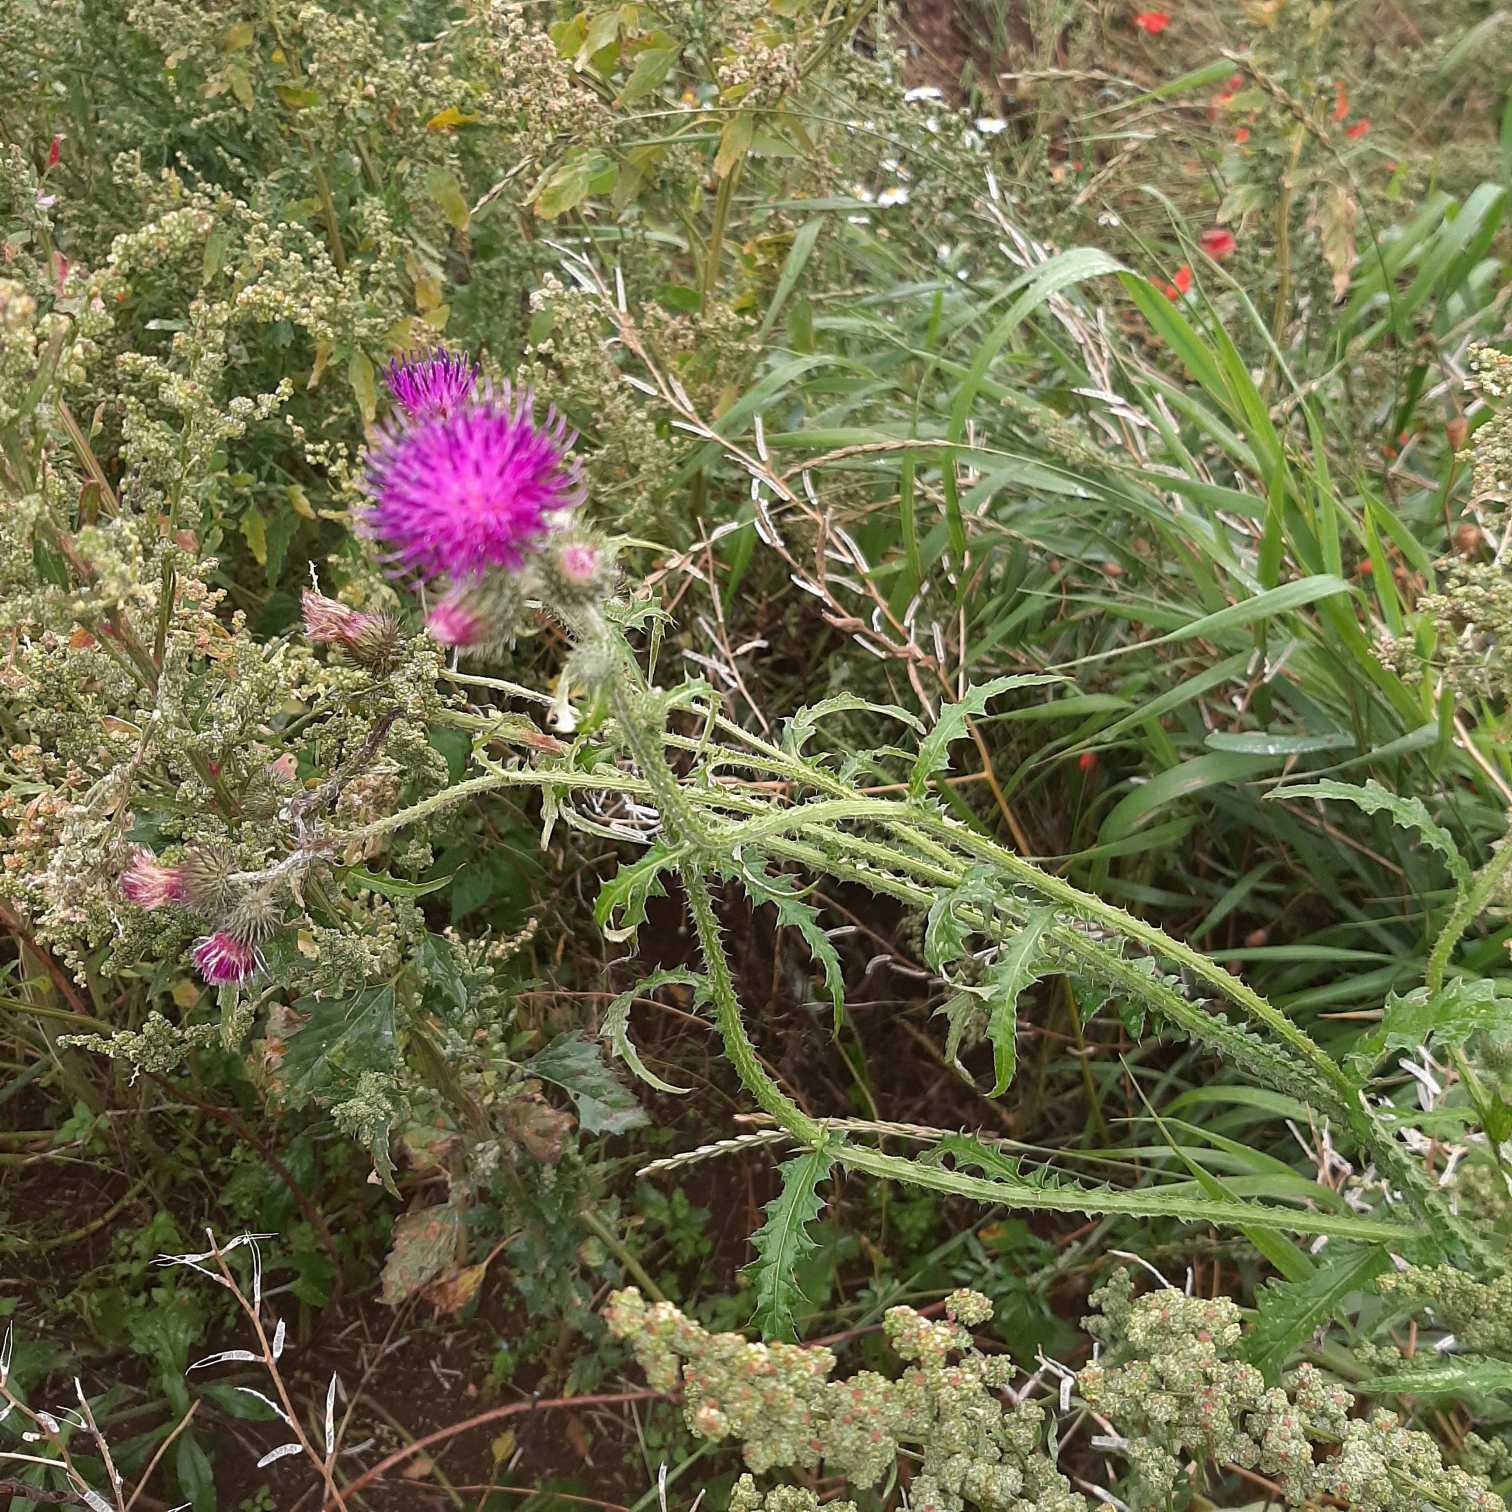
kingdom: Plantae
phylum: Tracheophyta
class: Magnoliopsida
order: Asterales
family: Asteraceae
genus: Carduus
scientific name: Carduus crispus
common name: Kruset tidsel
